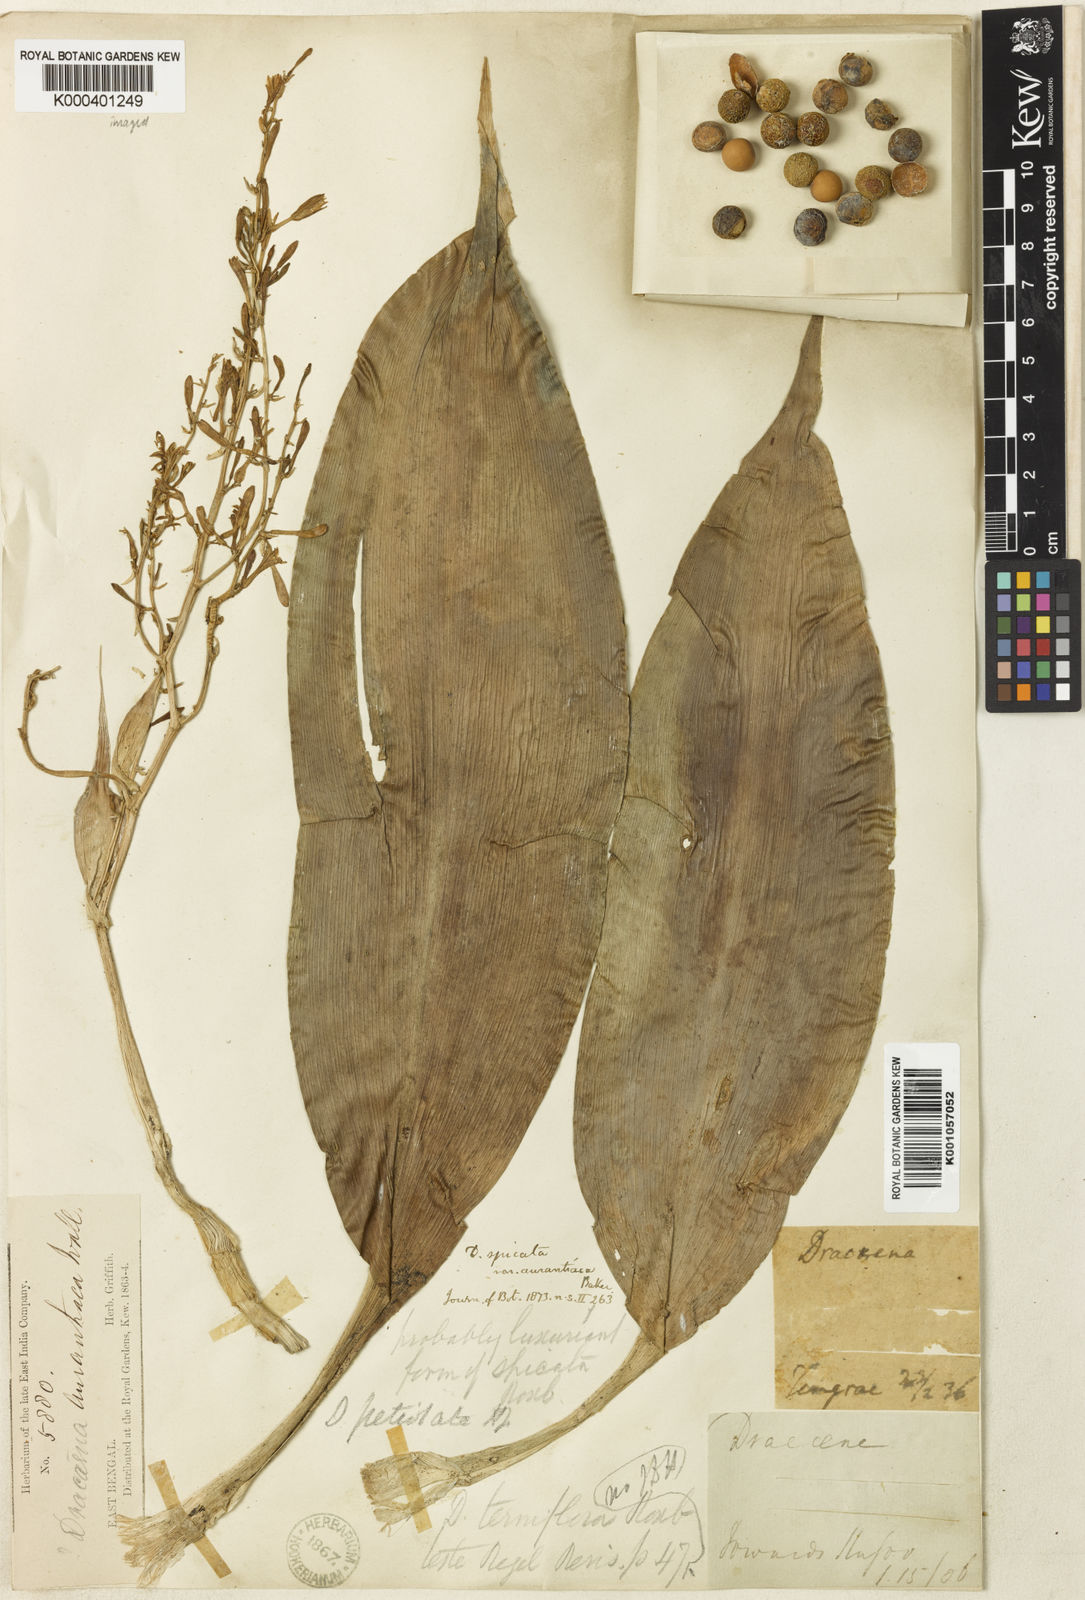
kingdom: Plantae
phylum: Tracheophyta
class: Liliopsida
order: Asparagales
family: Asparagaceae
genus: Dracaena
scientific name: Dracaena petiolata
